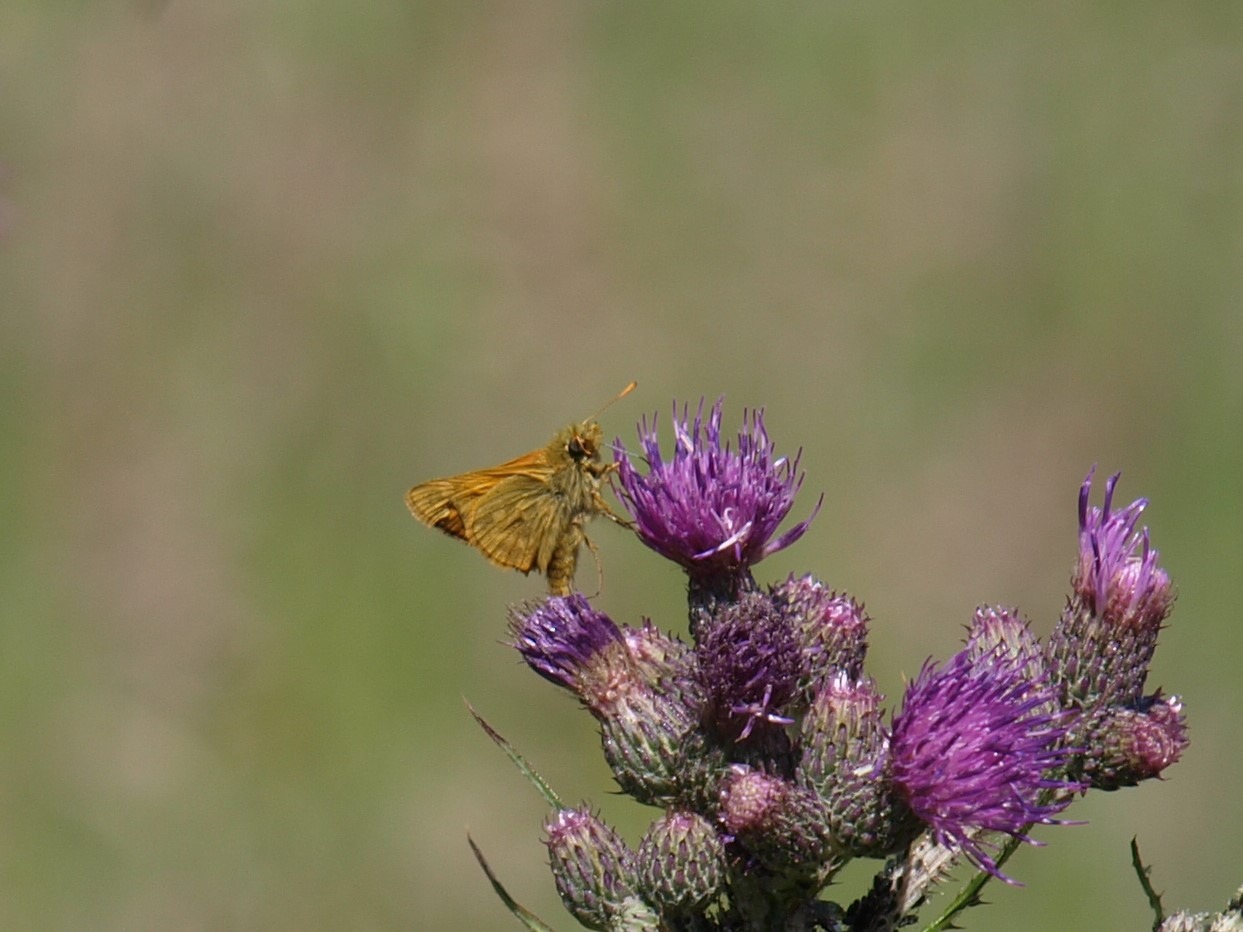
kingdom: Animalia
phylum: Arthropoda
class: Insecta
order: Lepidoptera
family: Hesperiidae
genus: Ochlodes
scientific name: Ochlodes venata
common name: Stor bredpande
